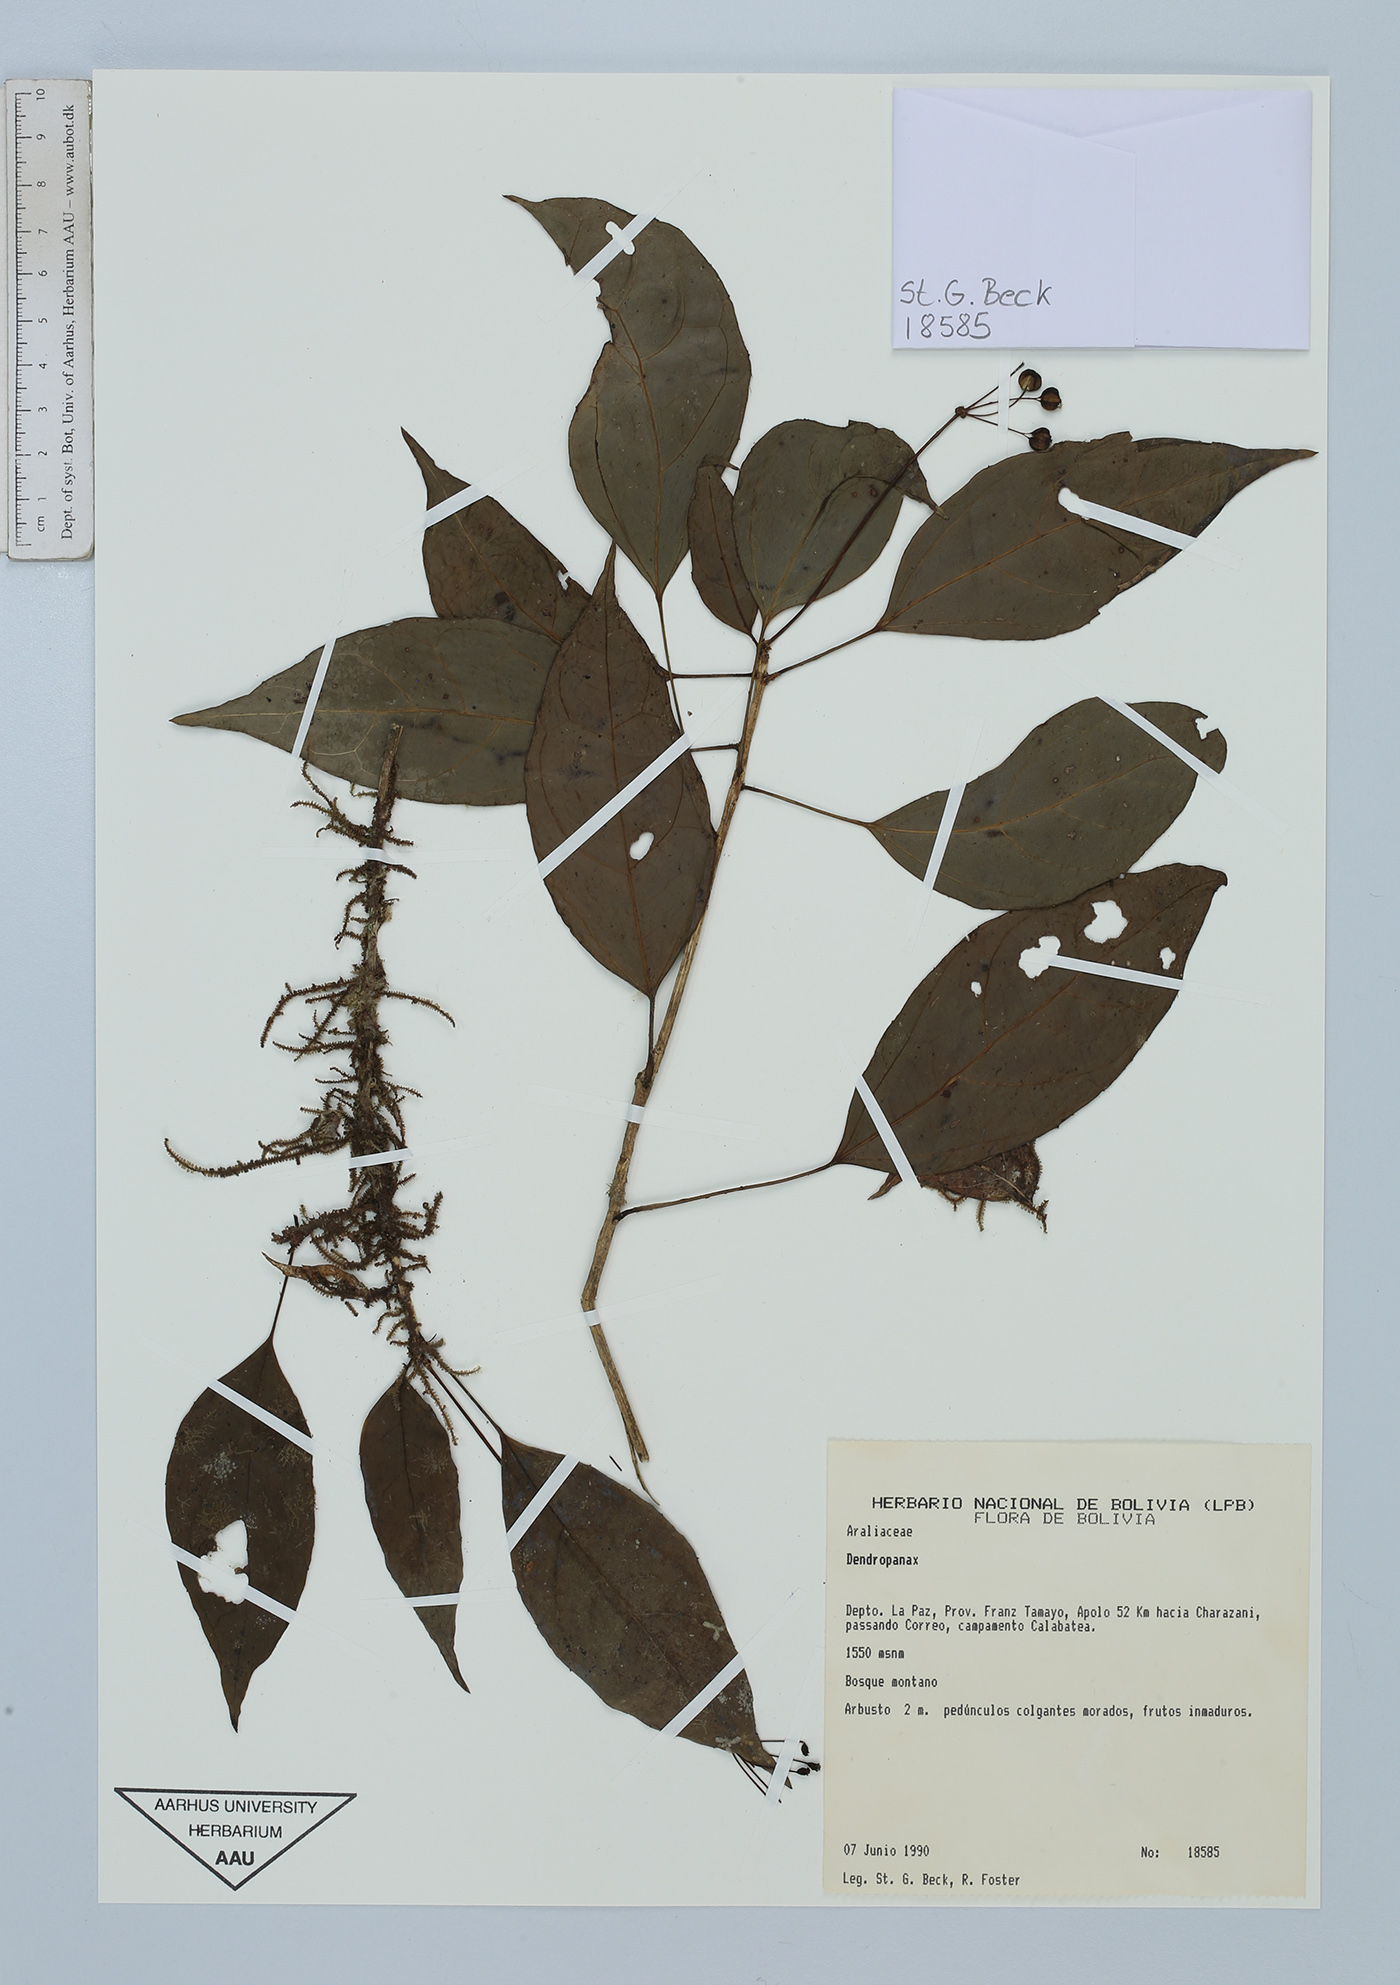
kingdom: Plantae
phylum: Tracheophyta
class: Magnoliopsida
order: Apiales
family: Araliaceae
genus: Dendropanax
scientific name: Dendropanax
